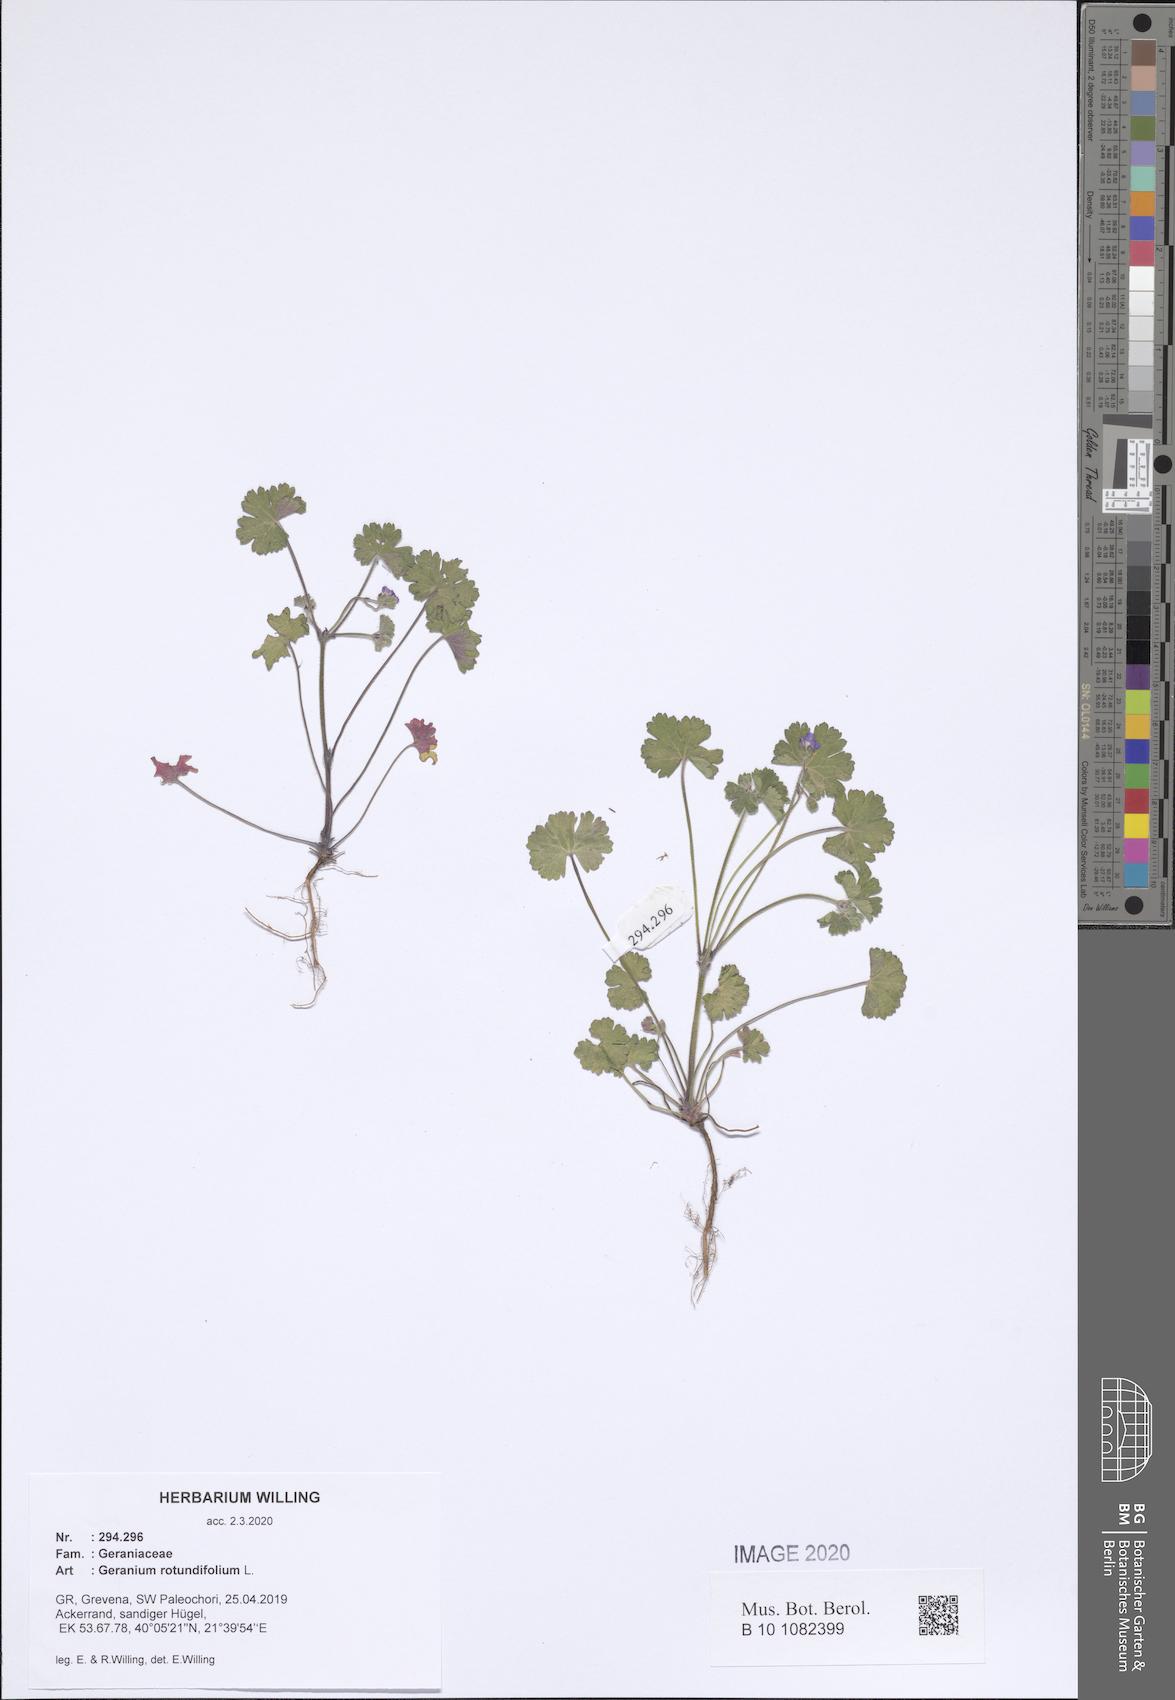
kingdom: Plantae
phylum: Tracheophyta
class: Magnoliopsida
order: Geraniales
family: Geraniaceae
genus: Geranium
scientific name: Geranium rotundifolium
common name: Round-leaved crane's-bill
